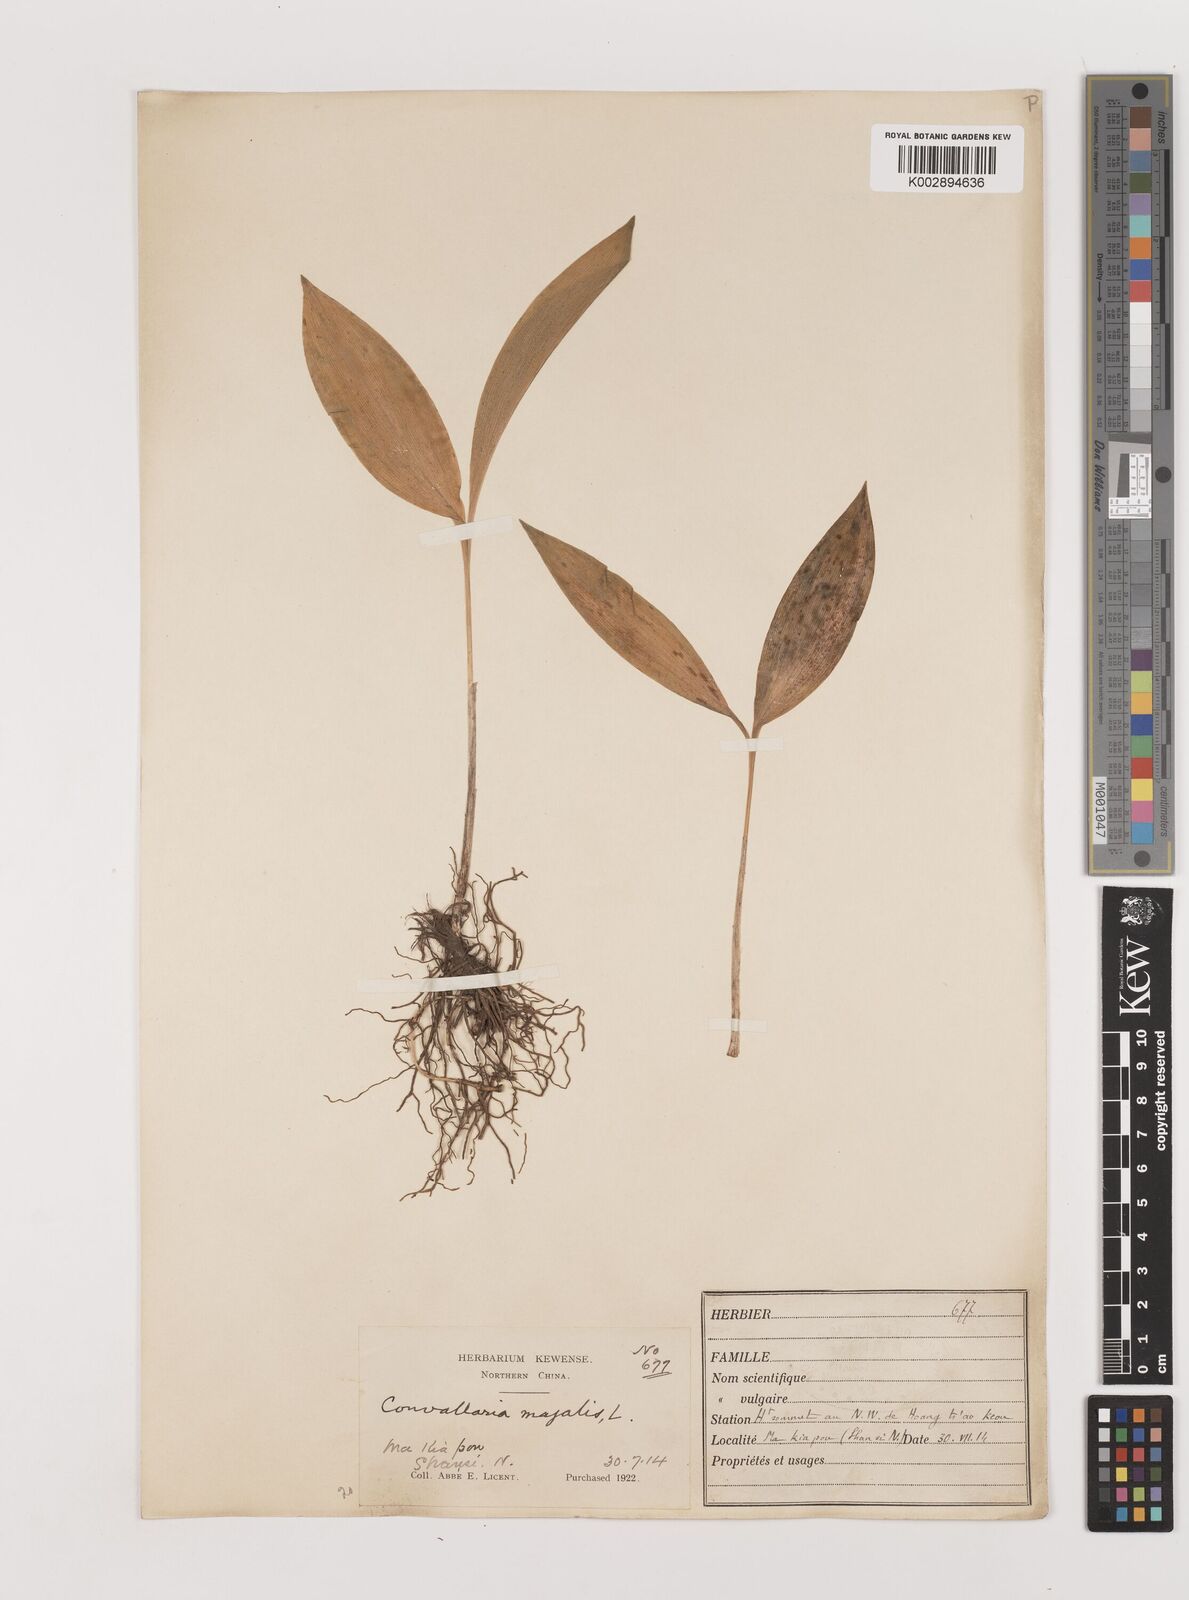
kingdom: Plantae
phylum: Tracheophyta
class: Liliopsida
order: Asparagales
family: Asparagaceae
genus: Ophiopogon
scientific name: Ophiopogon
